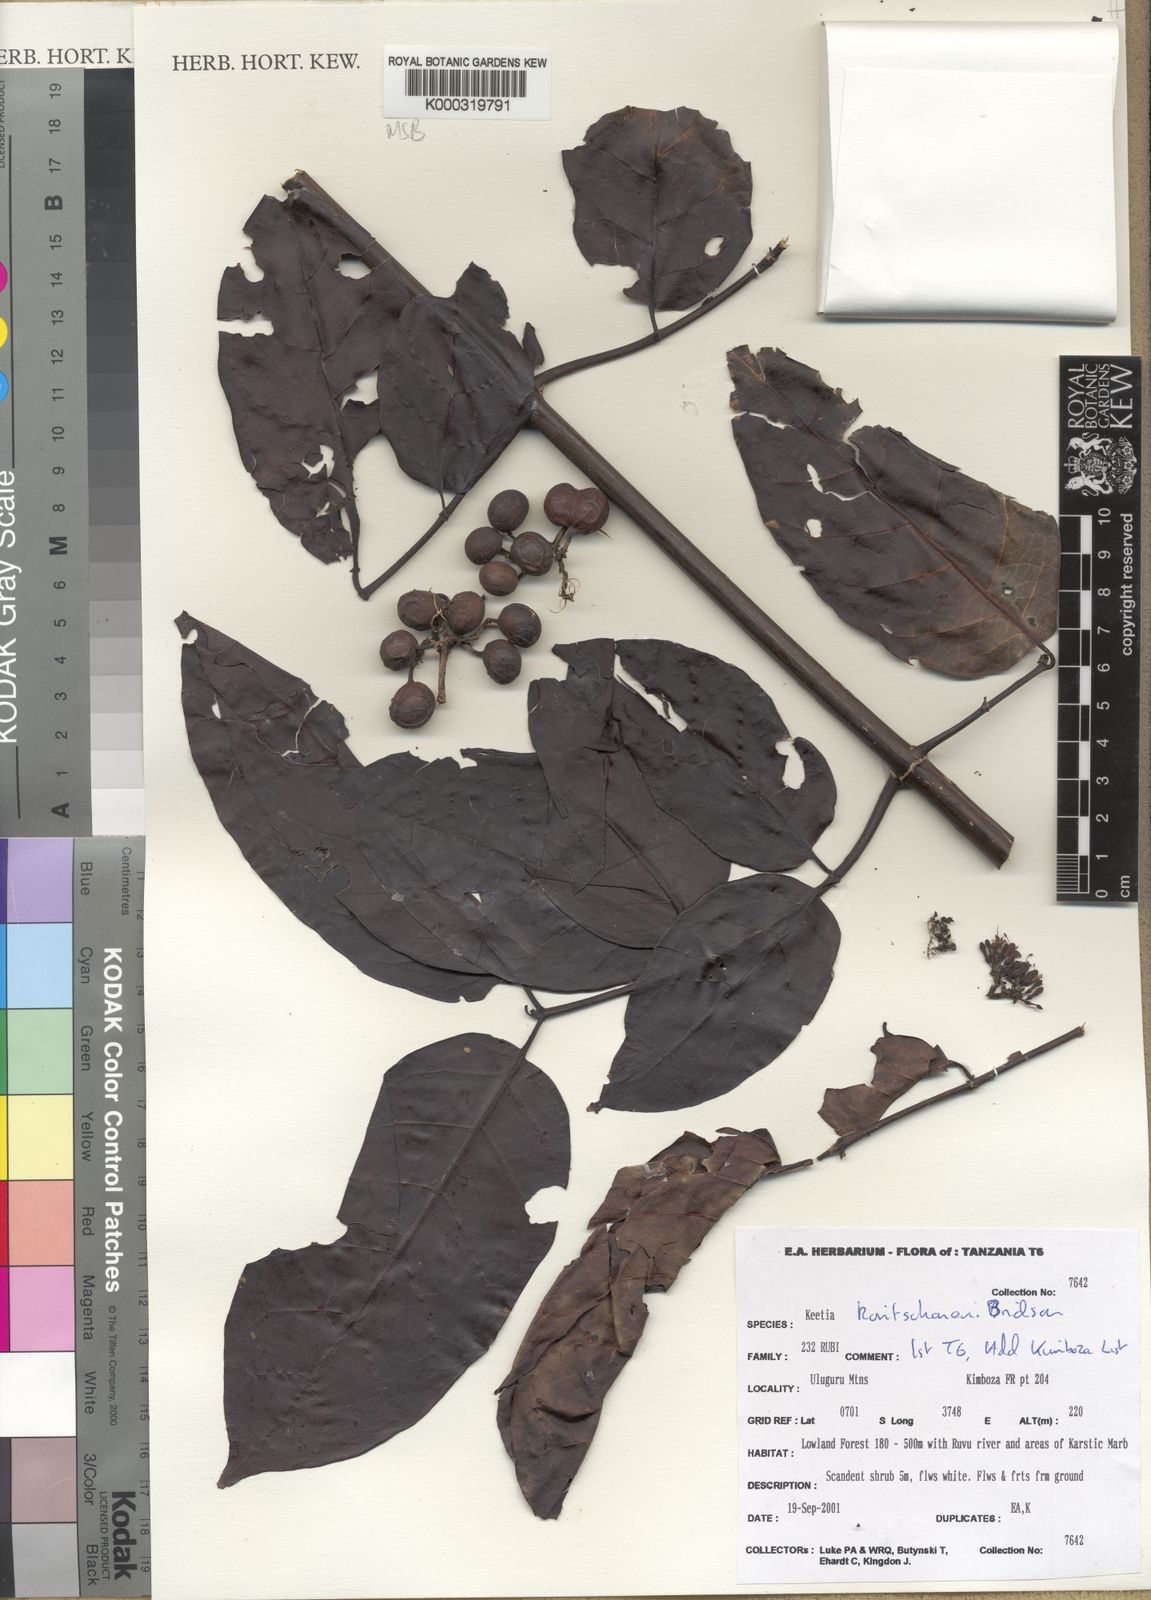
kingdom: Plantae
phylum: Tracheophyta
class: Magnoliopsida
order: Gentianales
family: Rubiaceae
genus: Keetia
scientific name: Keetia koritschoneri
